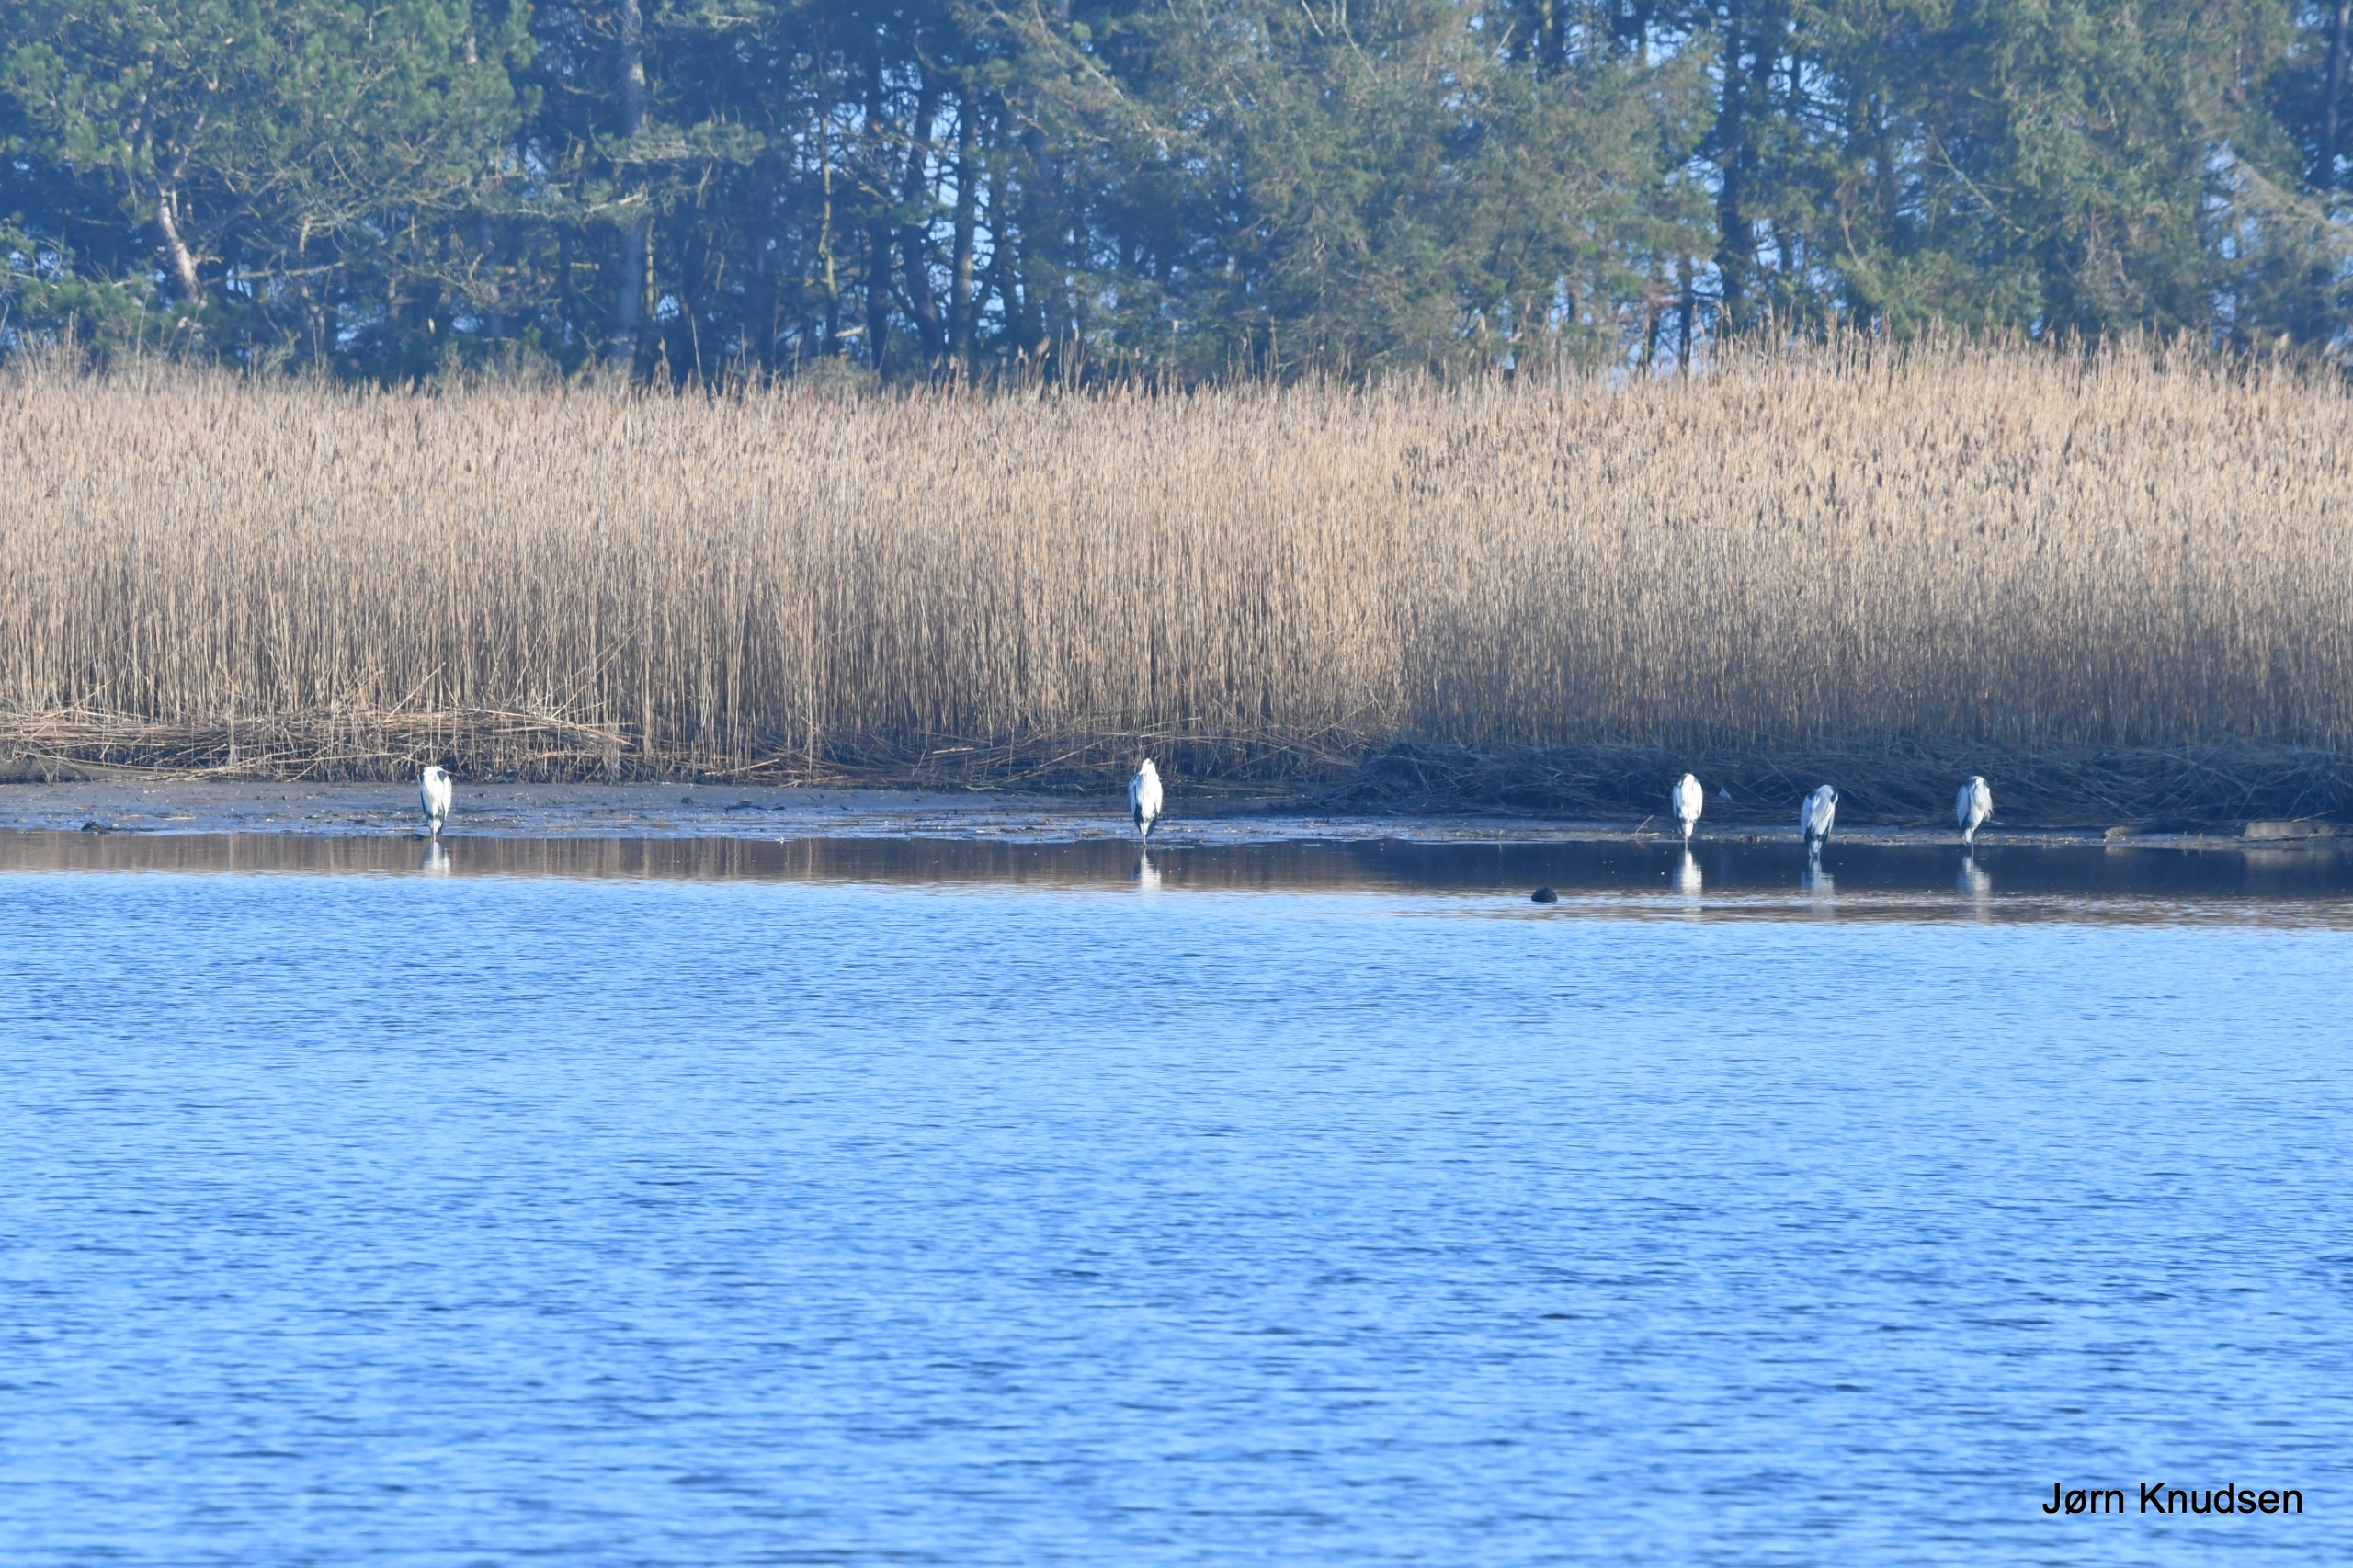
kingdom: Animalia
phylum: Chordata
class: Aves
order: Pelecaniformes
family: Ardeidae
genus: Ardea
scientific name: Ardea cinerea
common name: Fiskehejre
